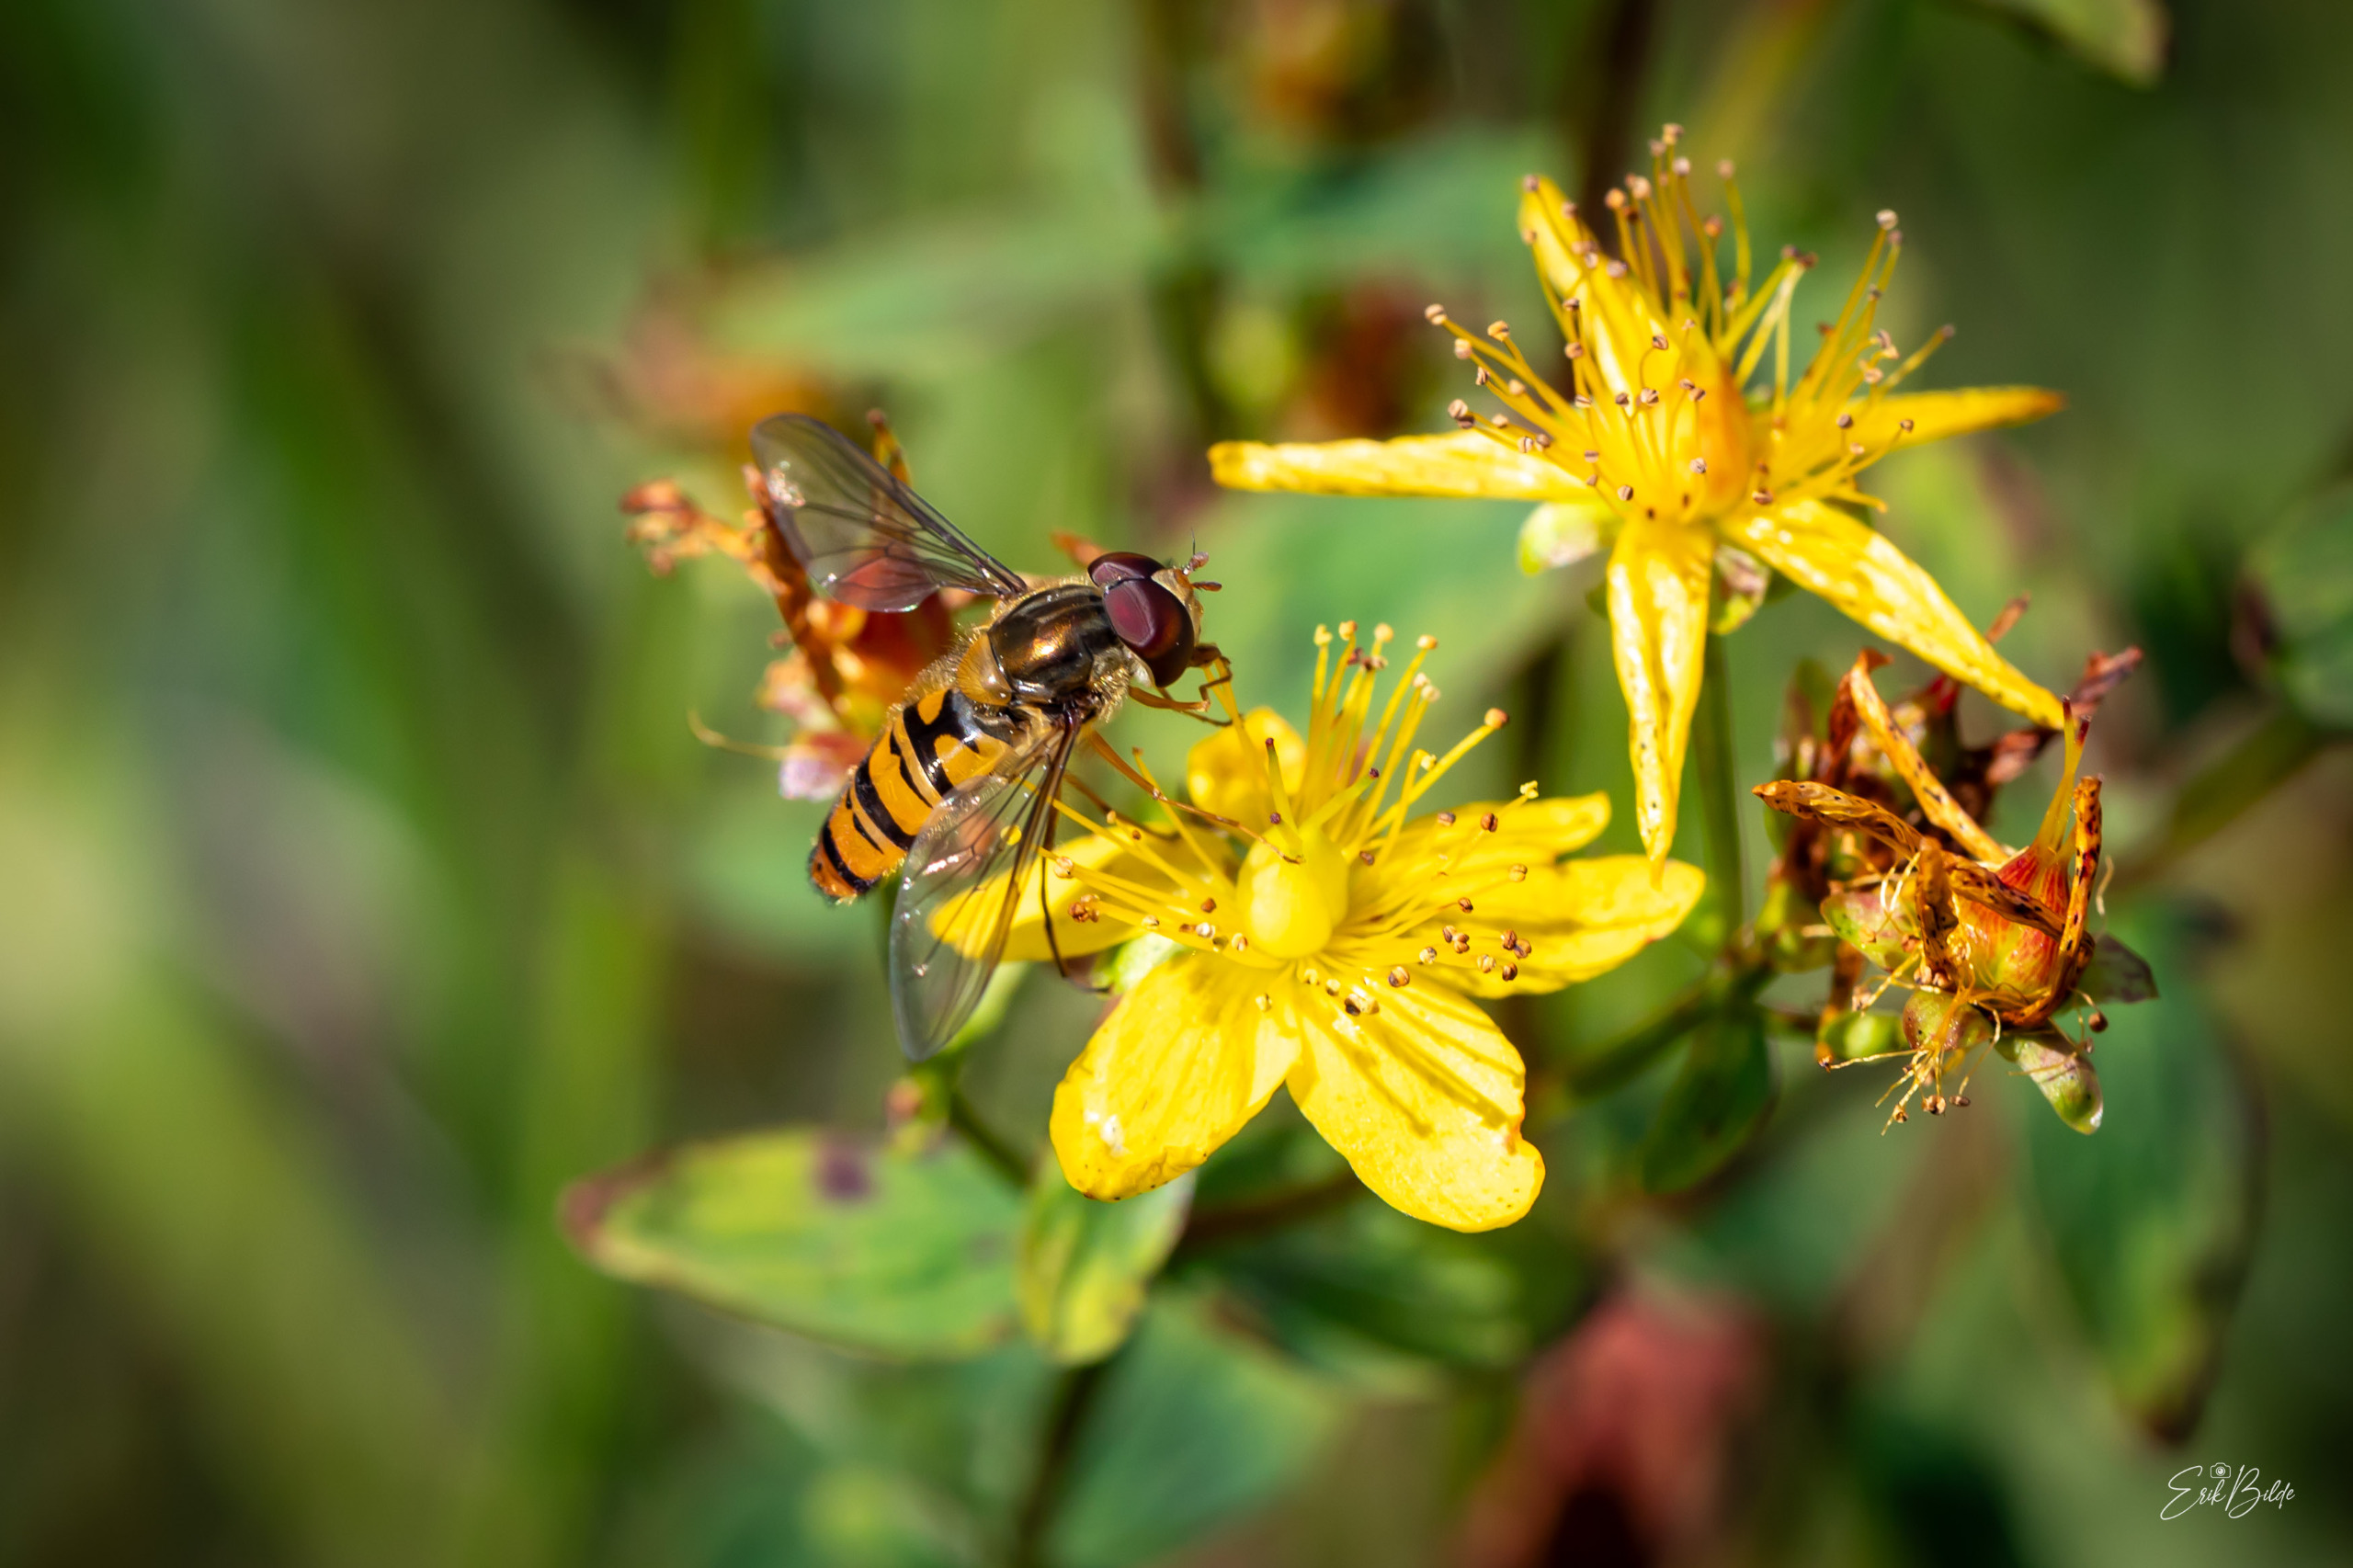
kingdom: Animalia
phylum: Arthropoda
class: Insecta
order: Diptera
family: Syrphidae
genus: Episyrphus
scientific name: Episyrphus balteatus
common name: Dobbeltbåndet svirreflue
